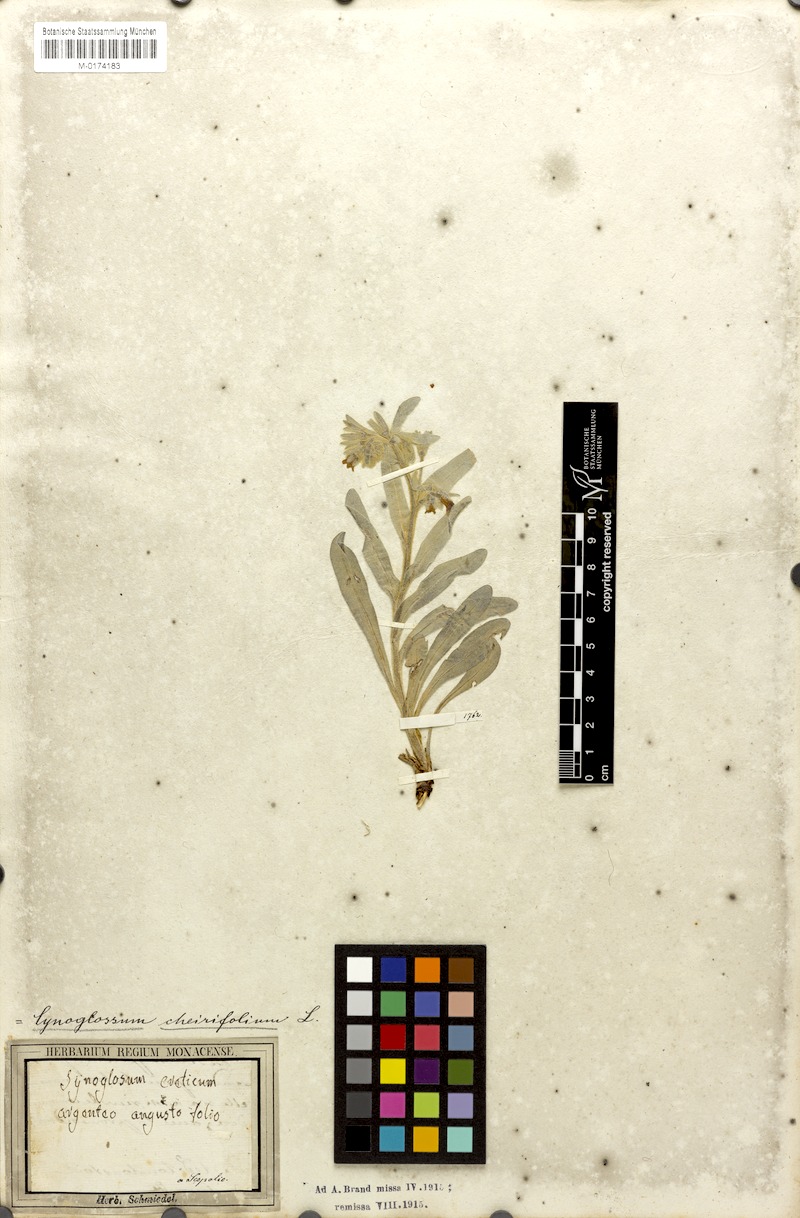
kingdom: Plantae
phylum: Tracheophyta
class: Magnoliopsida
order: Boraginales
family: Boraginaceae
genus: Pardoglossum
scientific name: Pardoglossum cheirifolium
